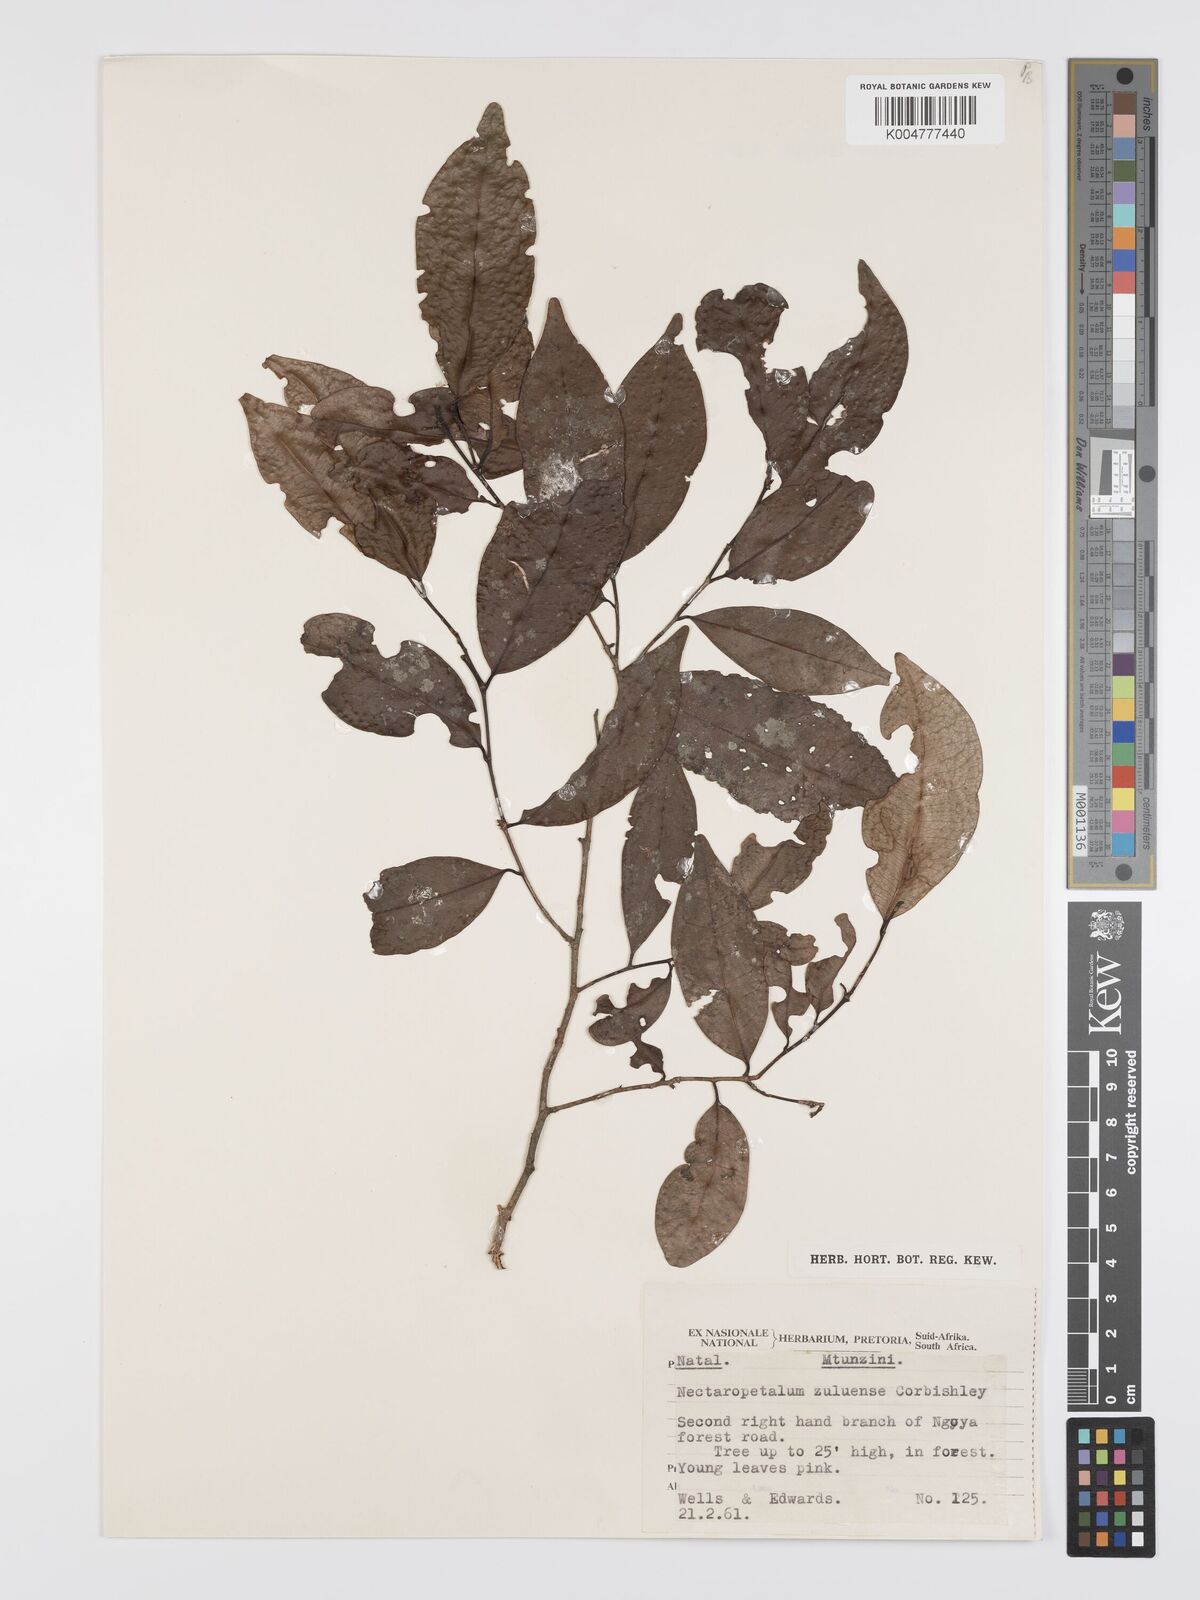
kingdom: Plantae
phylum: Tracheophyta
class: Magnoliopsida
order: Malpighiales
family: Erythroxylaceae
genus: Nectaropetalum
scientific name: Nectaropetalum zuluense
